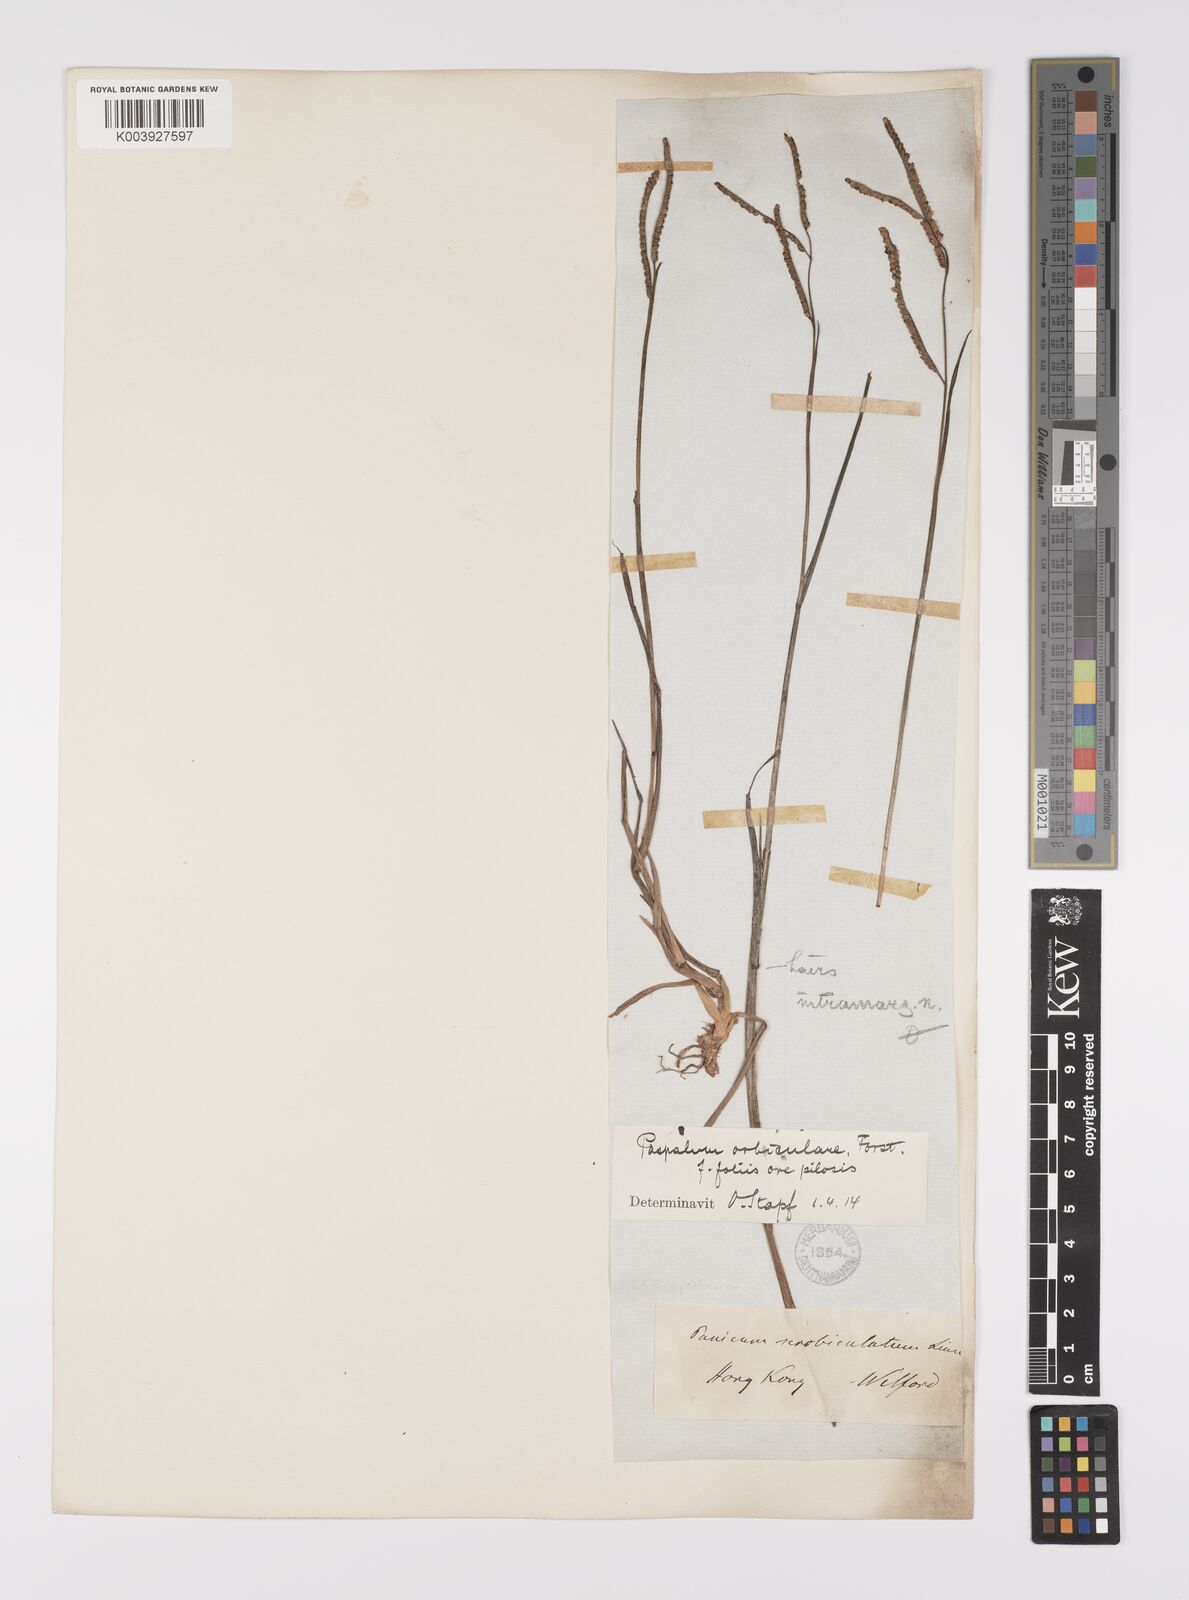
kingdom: Plantae
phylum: Tracheophyta
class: Liliopsida
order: Poales
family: Poaceae
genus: Paspalum
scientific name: Paspalum scrobiculatum
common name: Kodo millet
